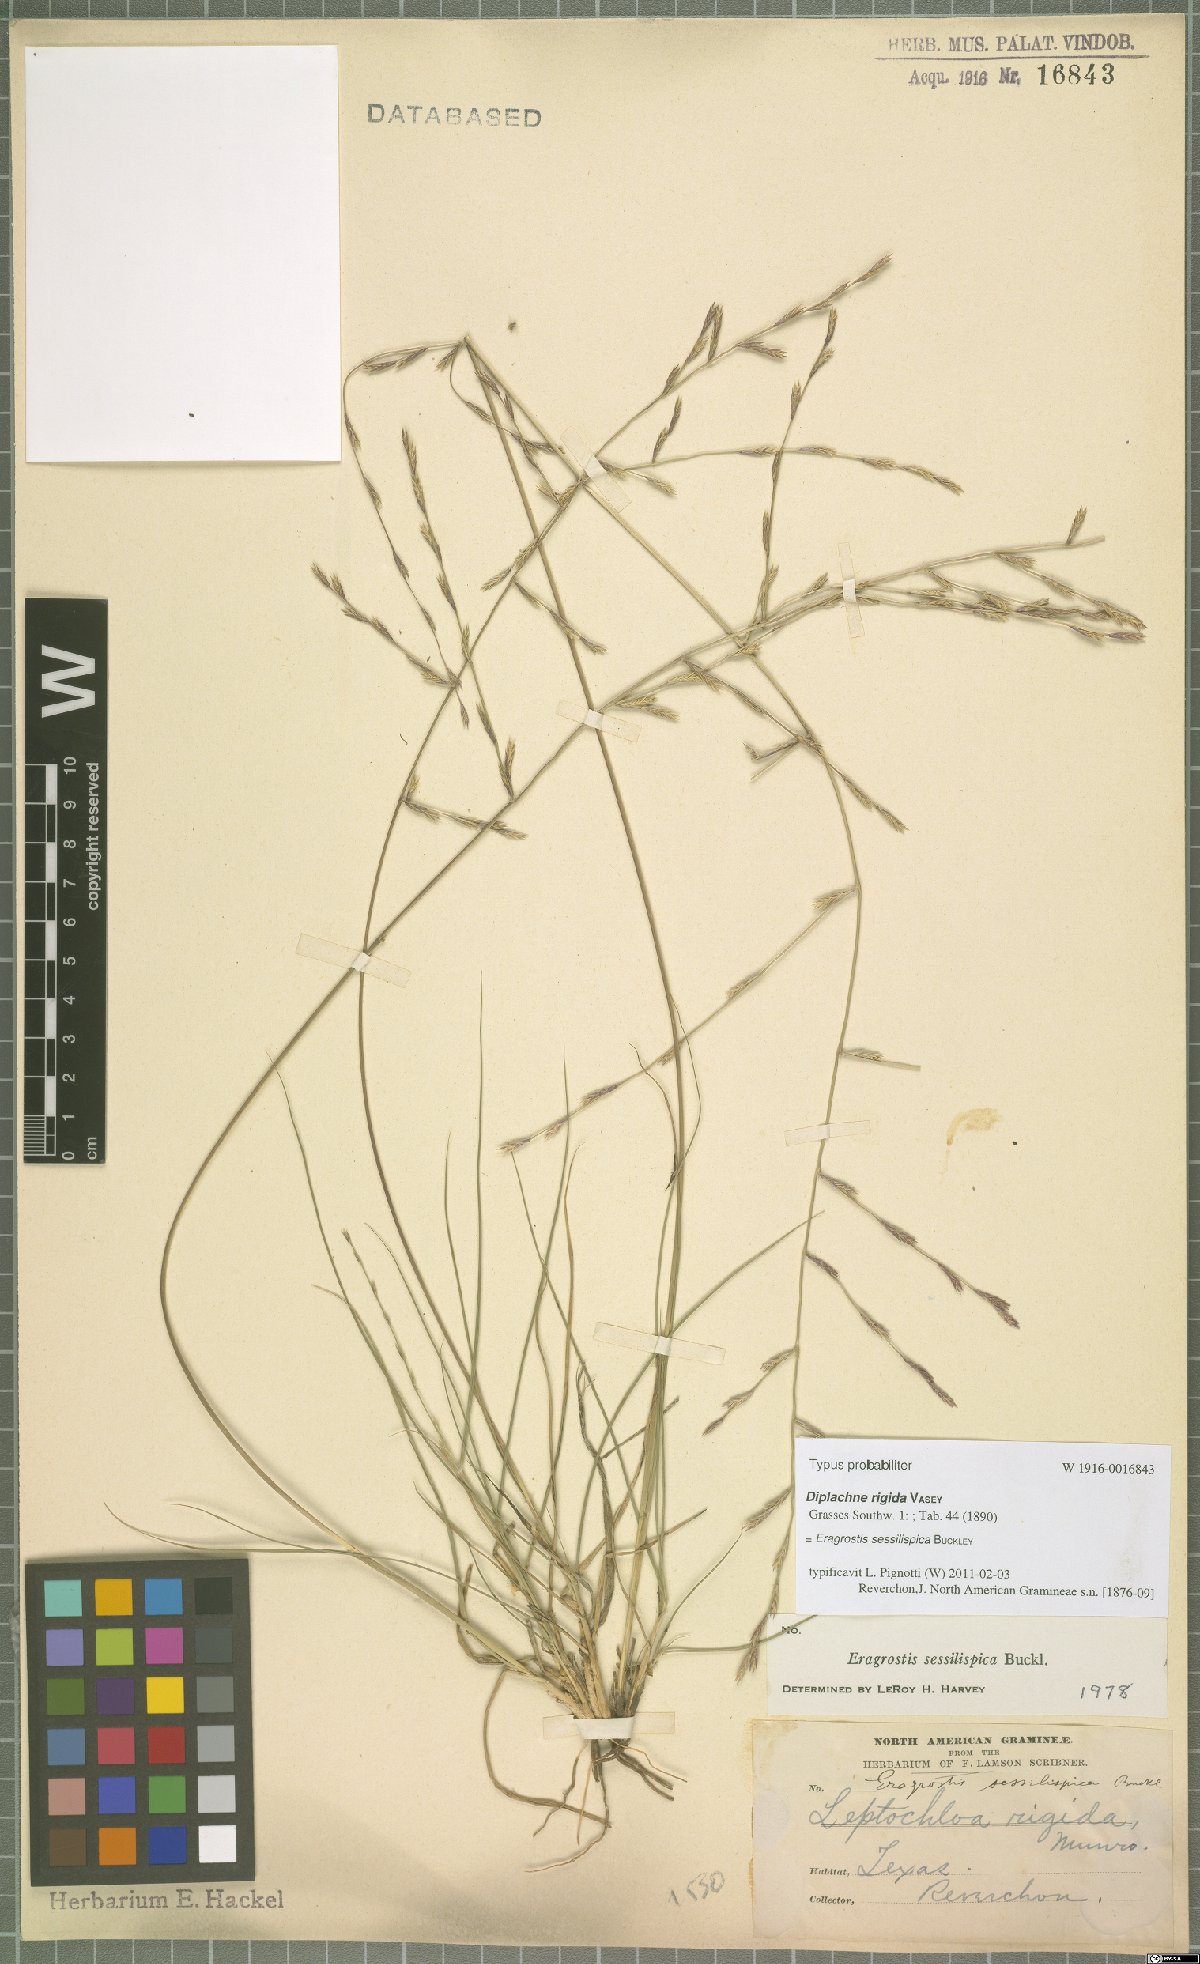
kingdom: Plantae
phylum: Tracheophyta
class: Liliopsida
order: Poales
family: Poaceae
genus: Eragrostis
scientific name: Eragrostis sessilispica
